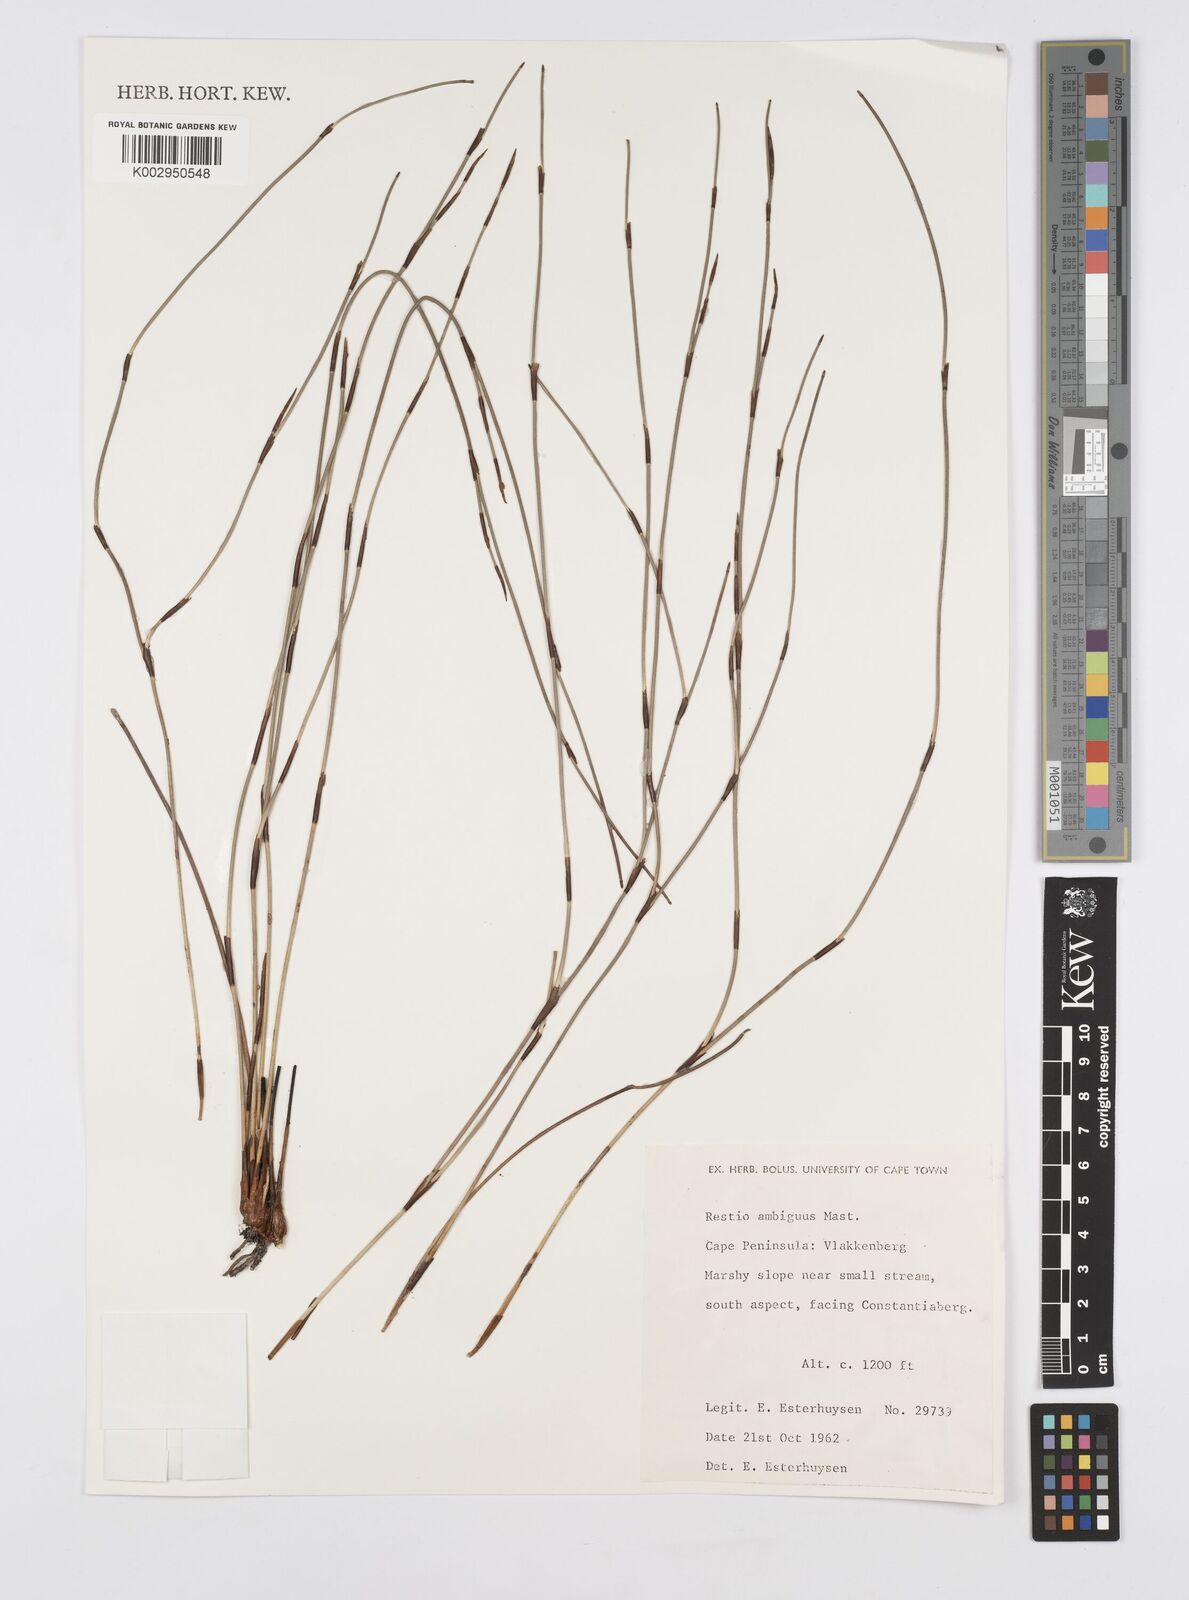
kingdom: Plantae
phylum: Tracheophyta
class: Liliopsida
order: Poales
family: Restionaceae
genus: Soroveta
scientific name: Soroveta ambigua
